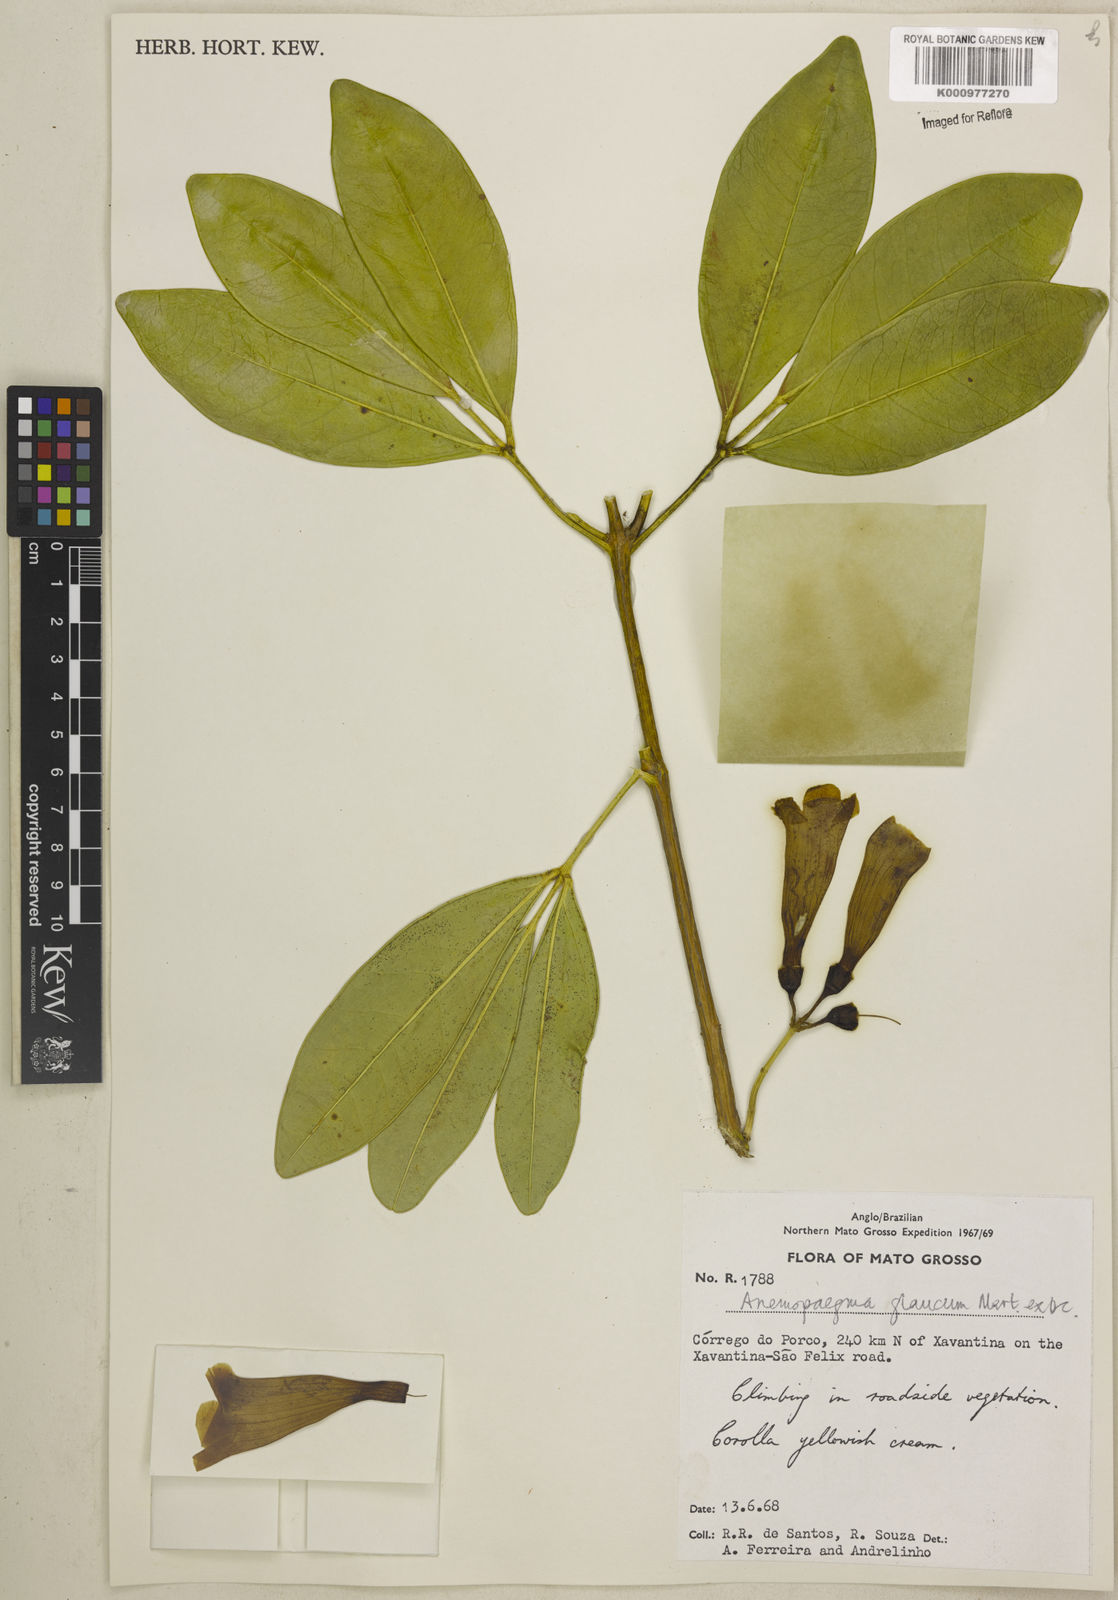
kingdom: Plantae
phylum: Tracheophyta
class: Magnoliopsida
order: Lamiales
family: Bignoniaceae
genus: Anemopaegma
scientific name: Anemopaegma glaucum
